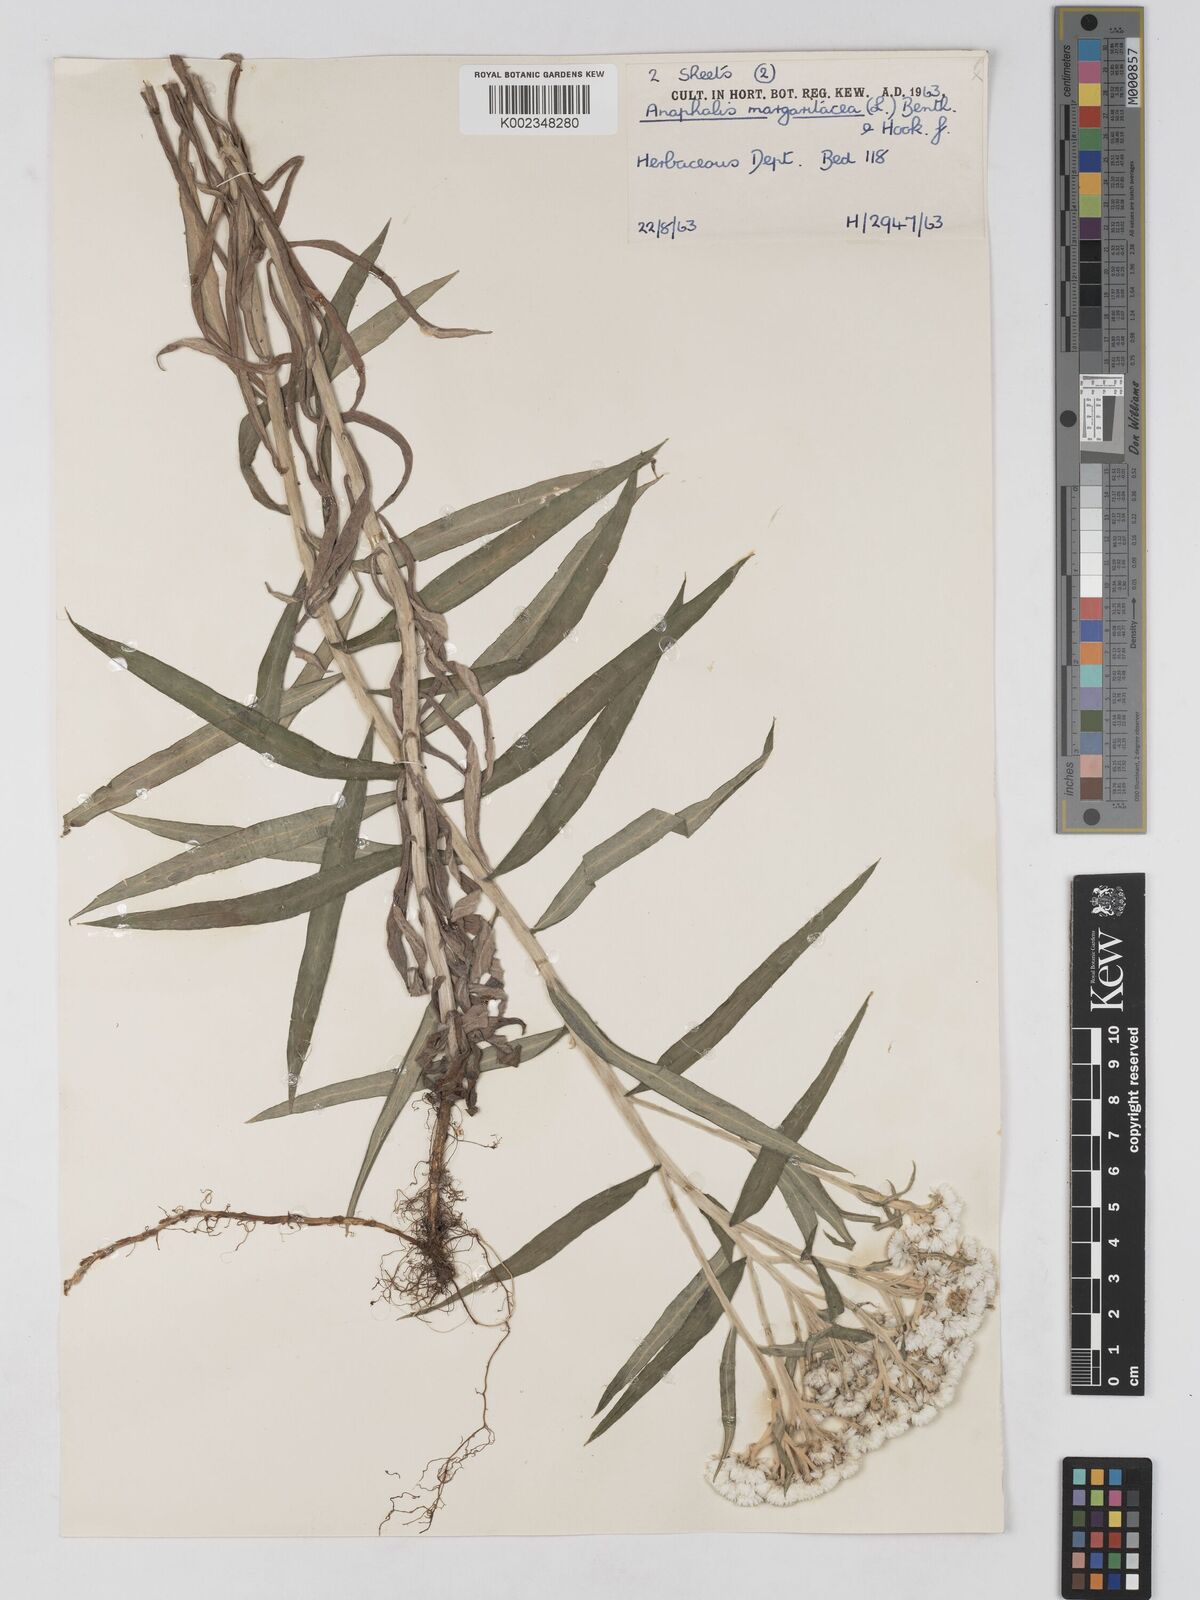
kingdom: Plantae
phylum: Tracheophyta
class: Magnoliopsida
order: Asterales
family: Asteraceae
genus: Anaphalis
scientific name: Anaphalis margaritacea
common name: Pearly everlasting
